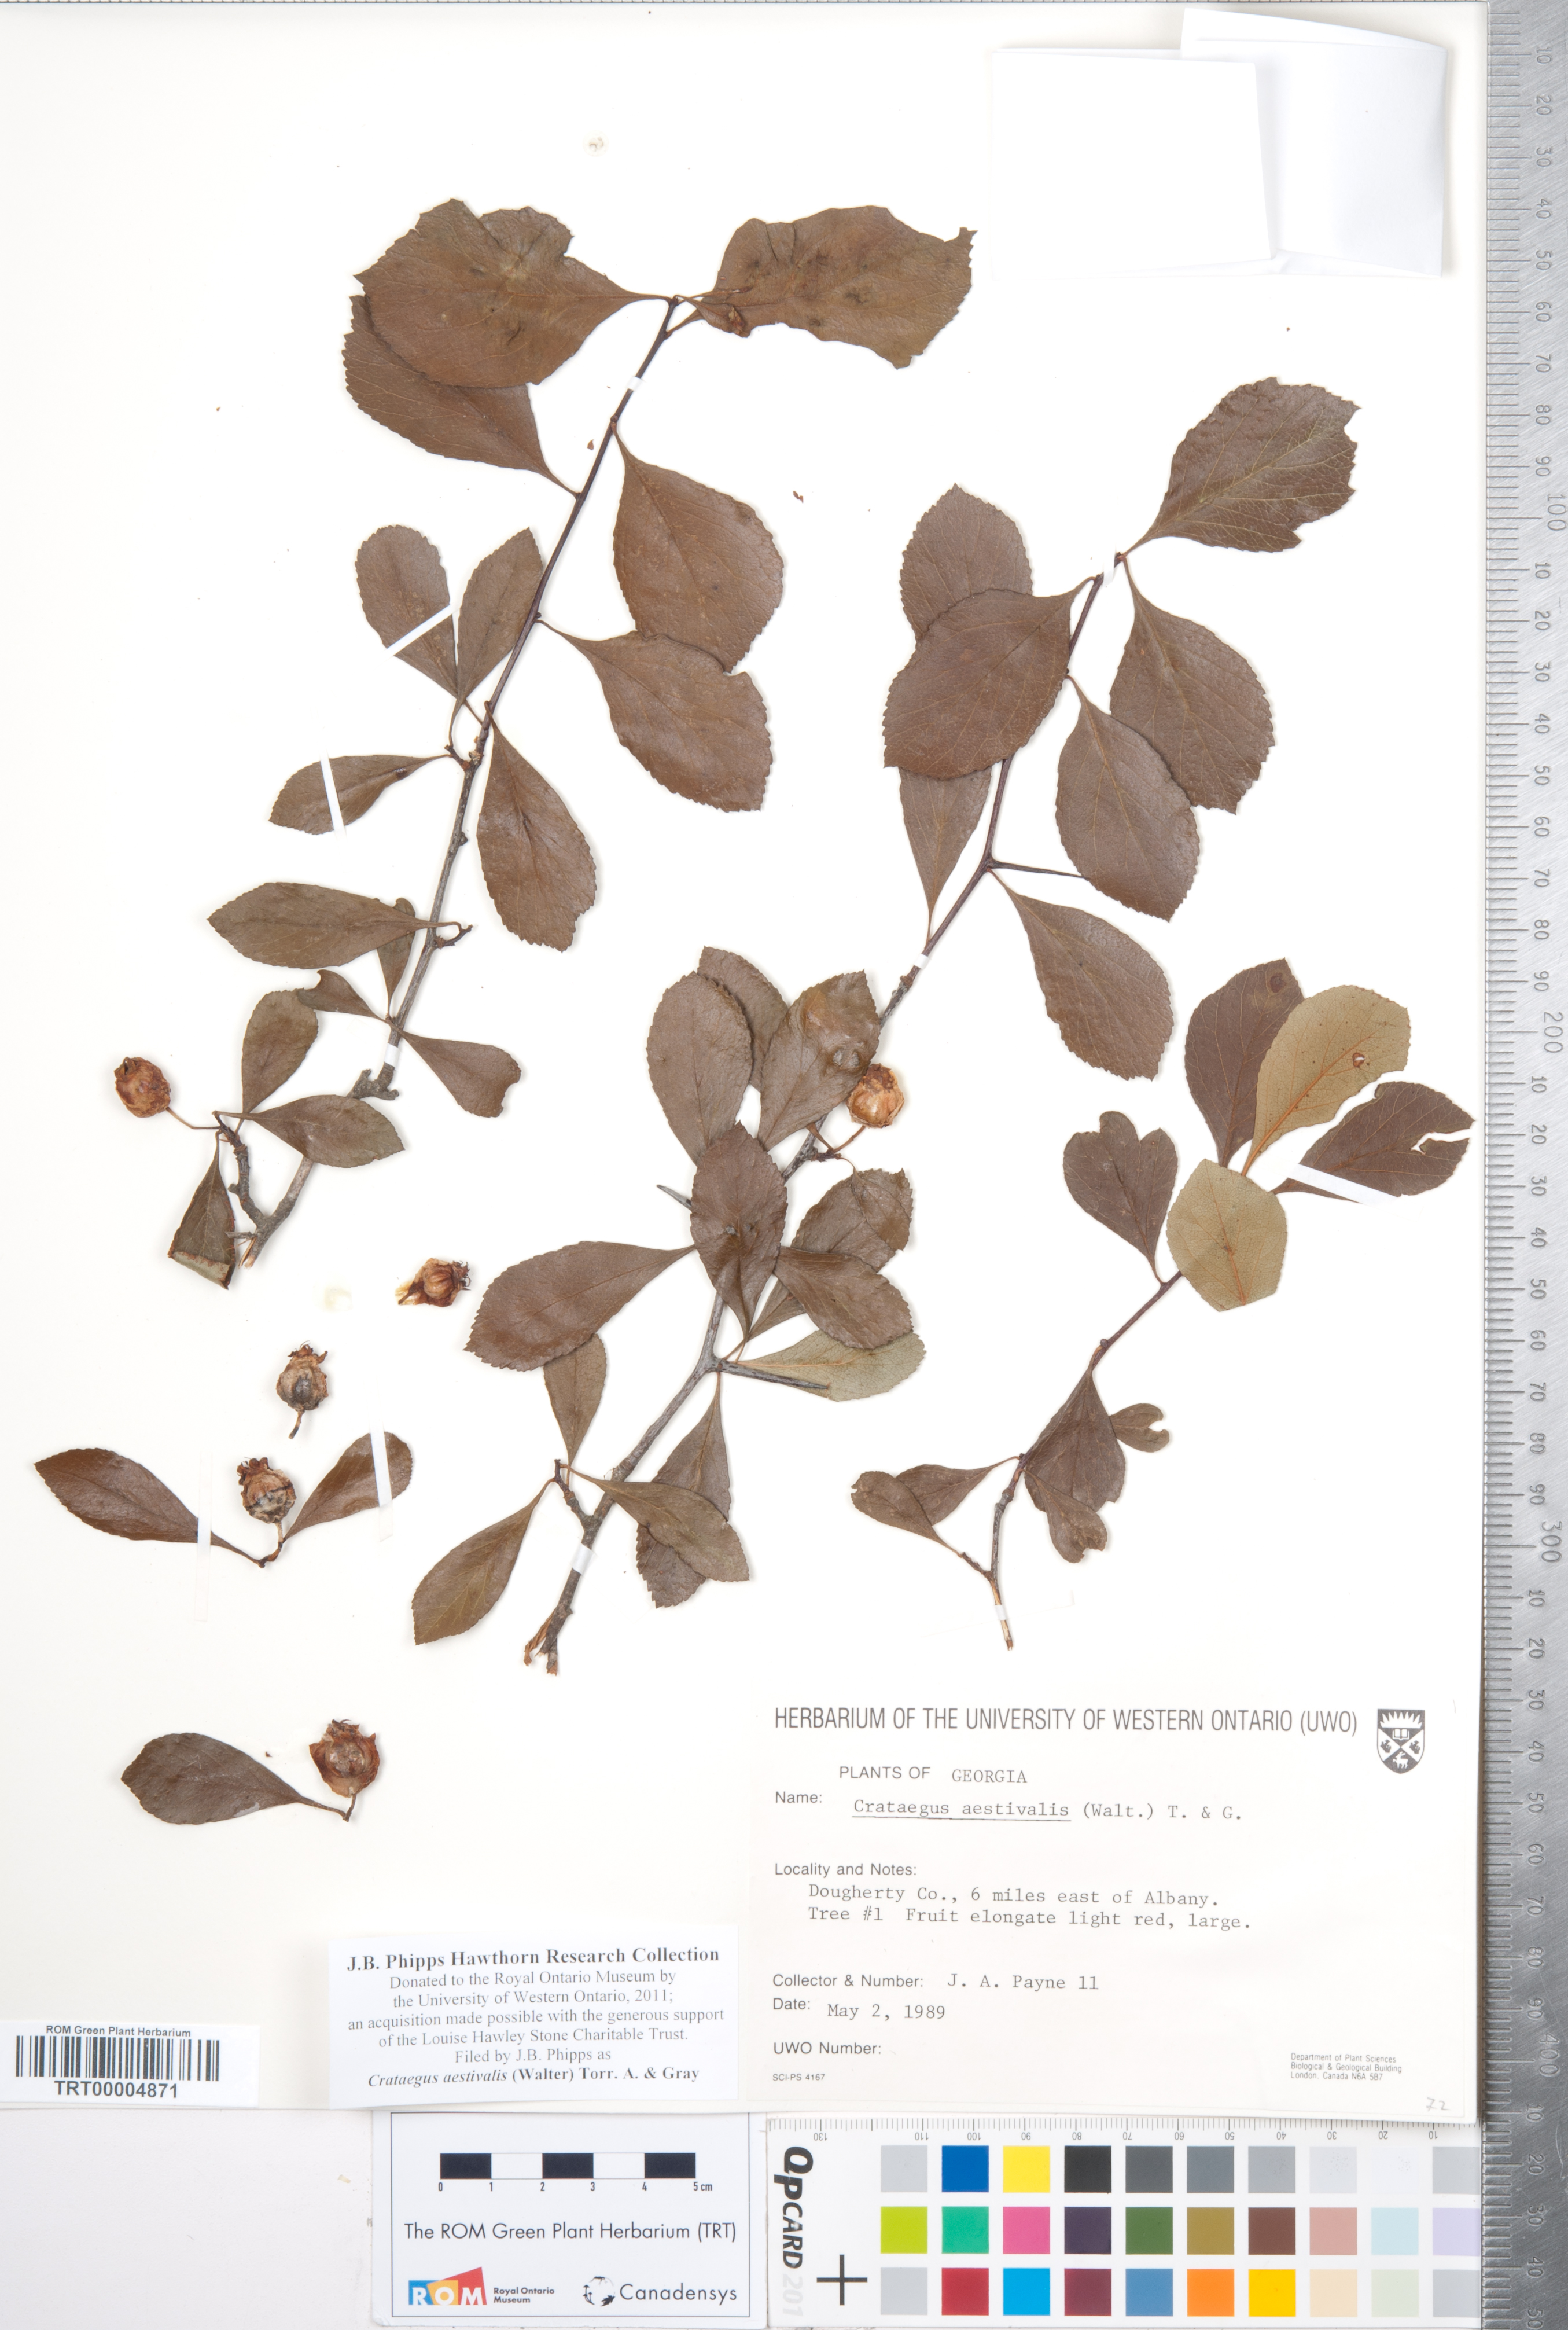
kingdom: Plantae
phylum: Tracheophyta
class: Magnoliopsida
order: Rosales
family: Rosaceae
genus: Crataegus
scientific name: Crataegus aestivalis
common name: Mayhaw
